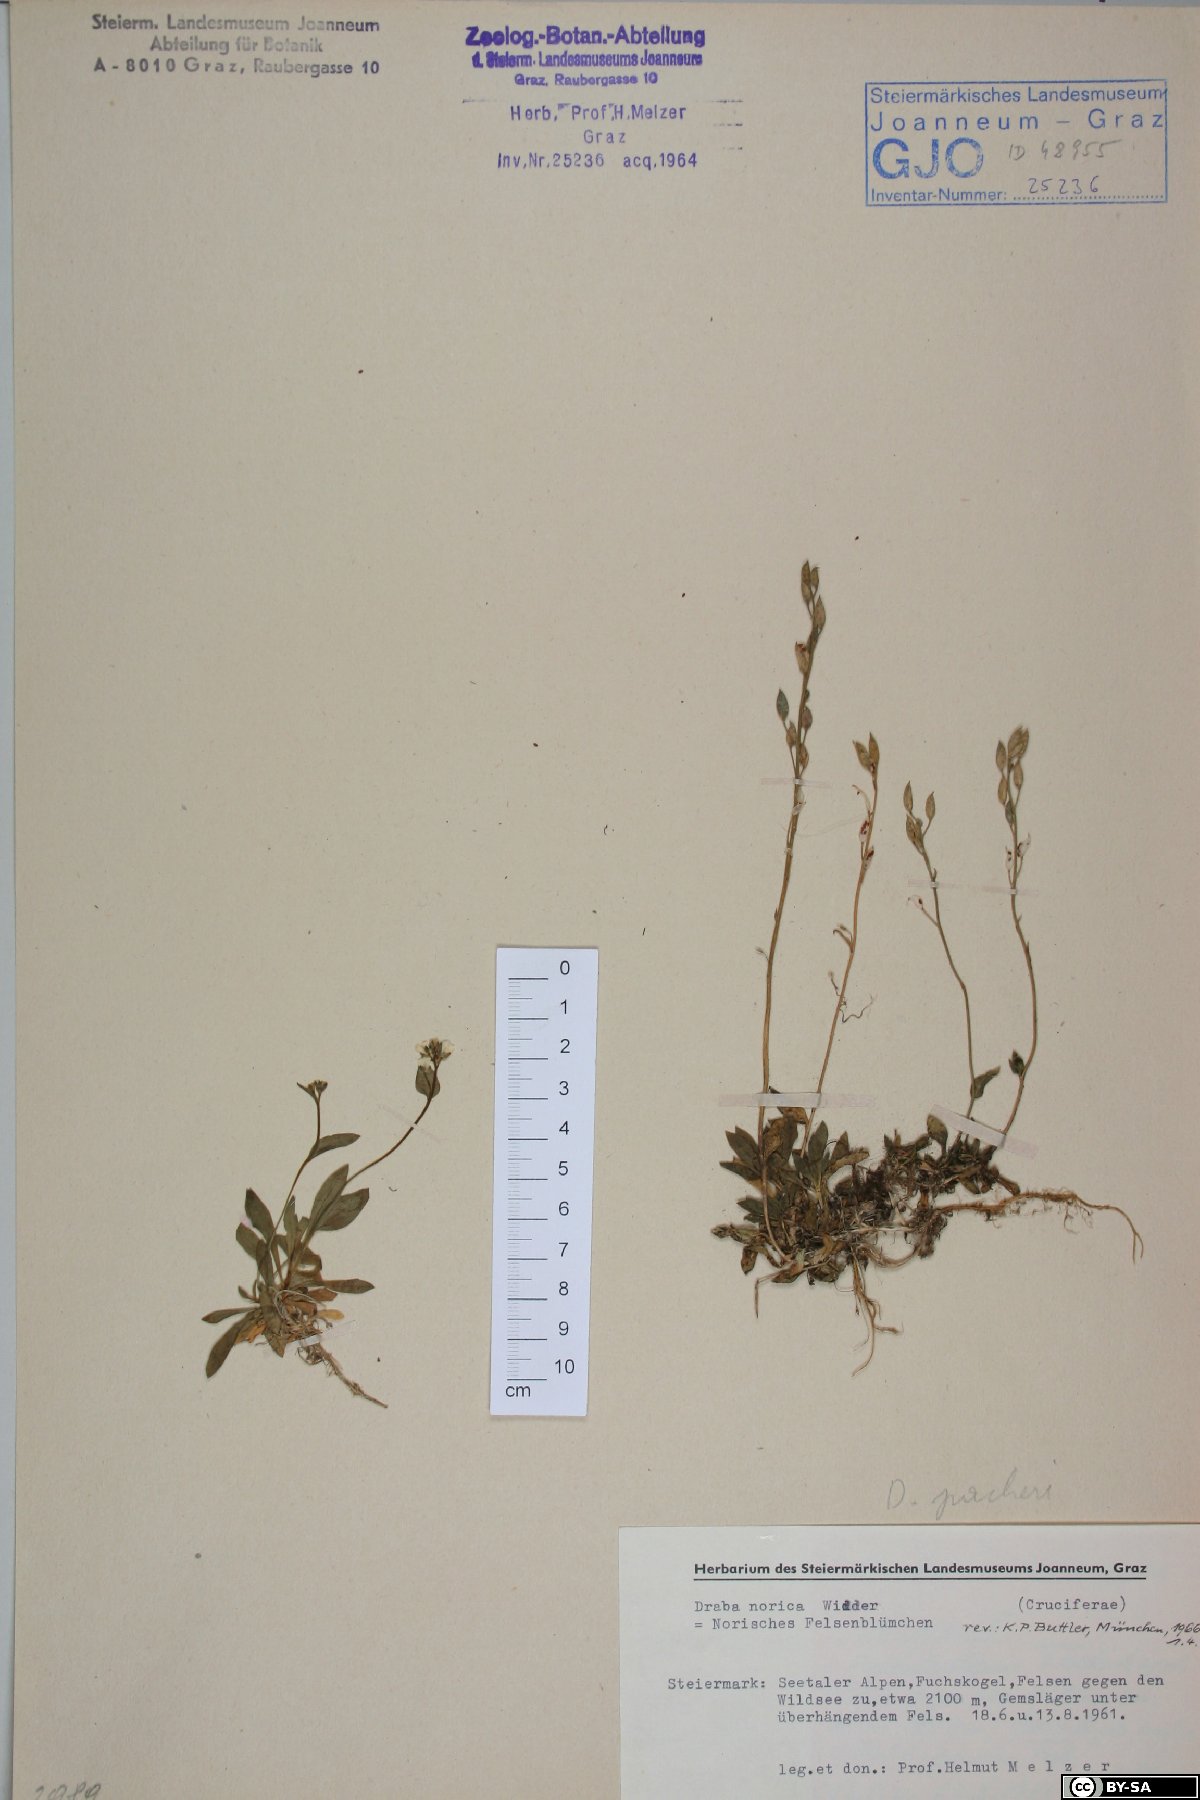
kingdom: Plantae
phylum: Tracheophyta
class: Magnoliopsida
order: Brassicales
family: Brassicaceae
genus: Draba
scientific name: Draba pacheri
